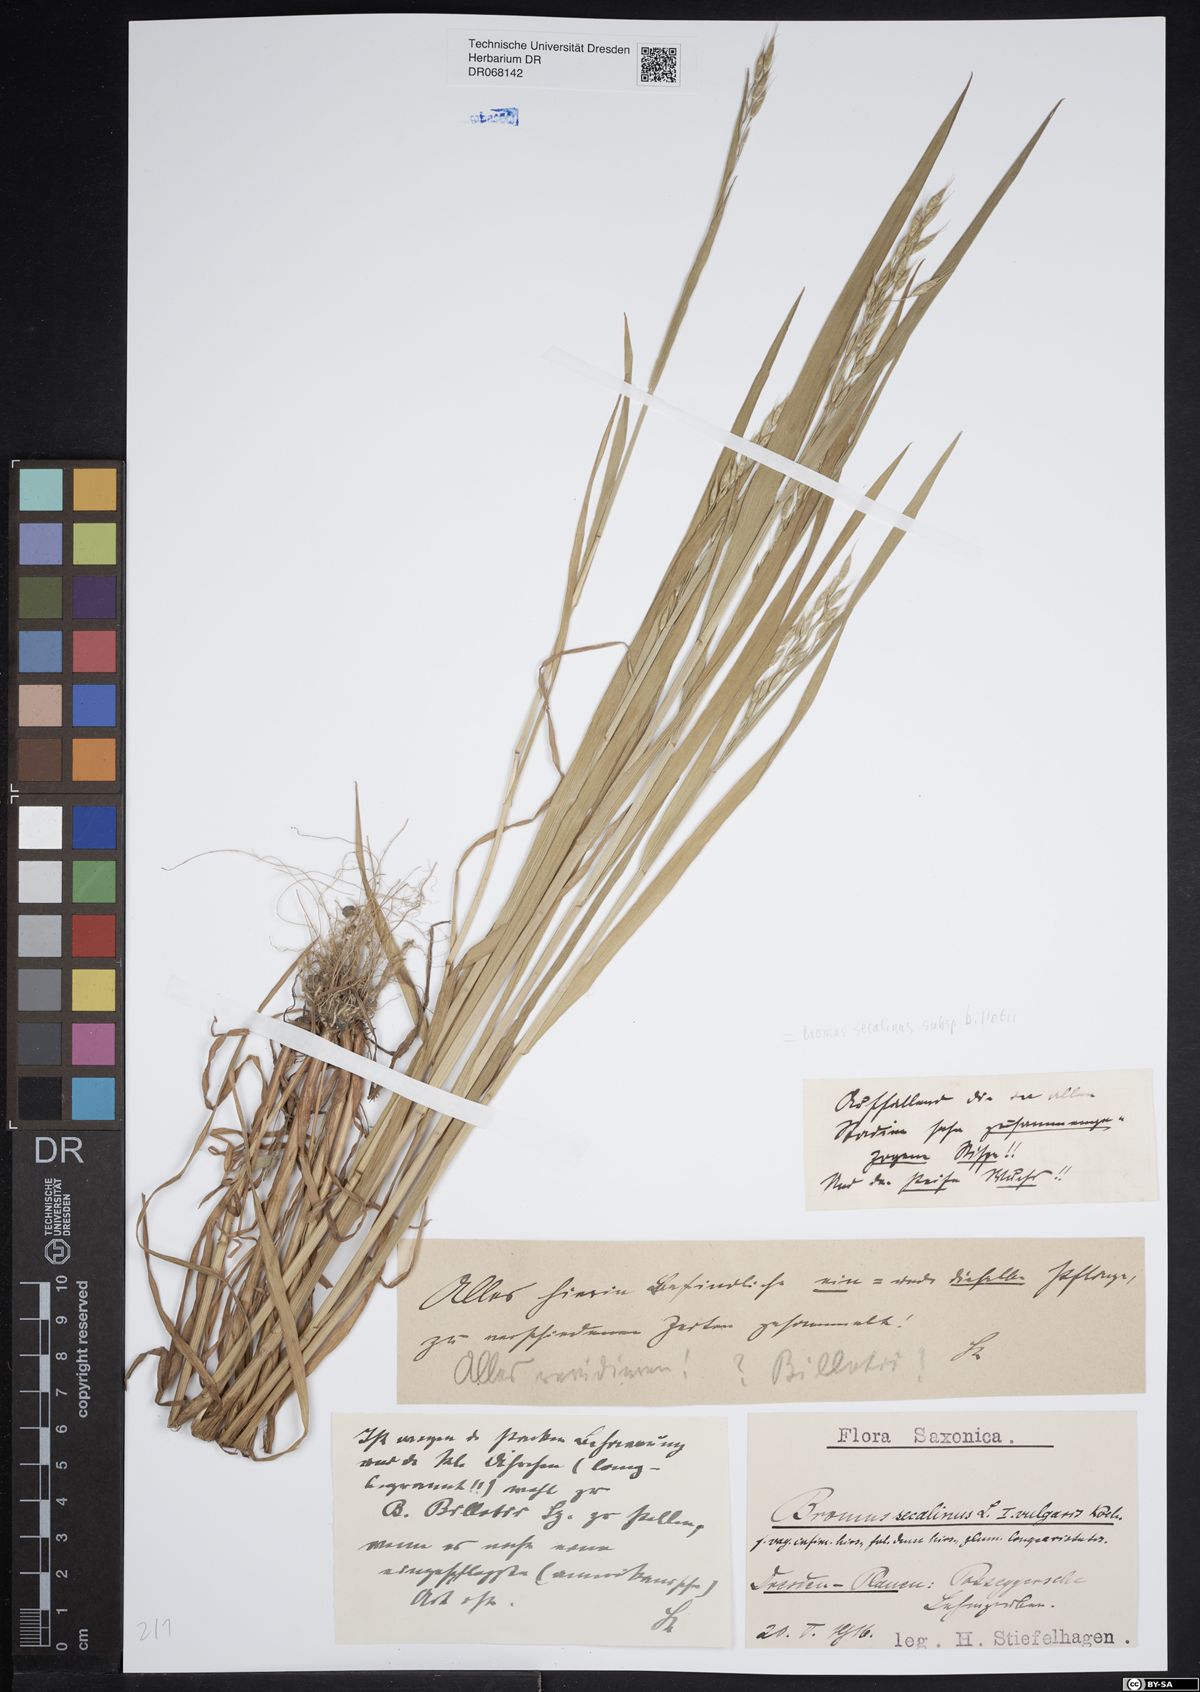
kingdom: Plantae
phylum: Tracheophyta
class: Liliopsida
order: Poales
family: Poaceae
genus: Bromus
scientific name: Bromus arvensis
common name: Field brome
